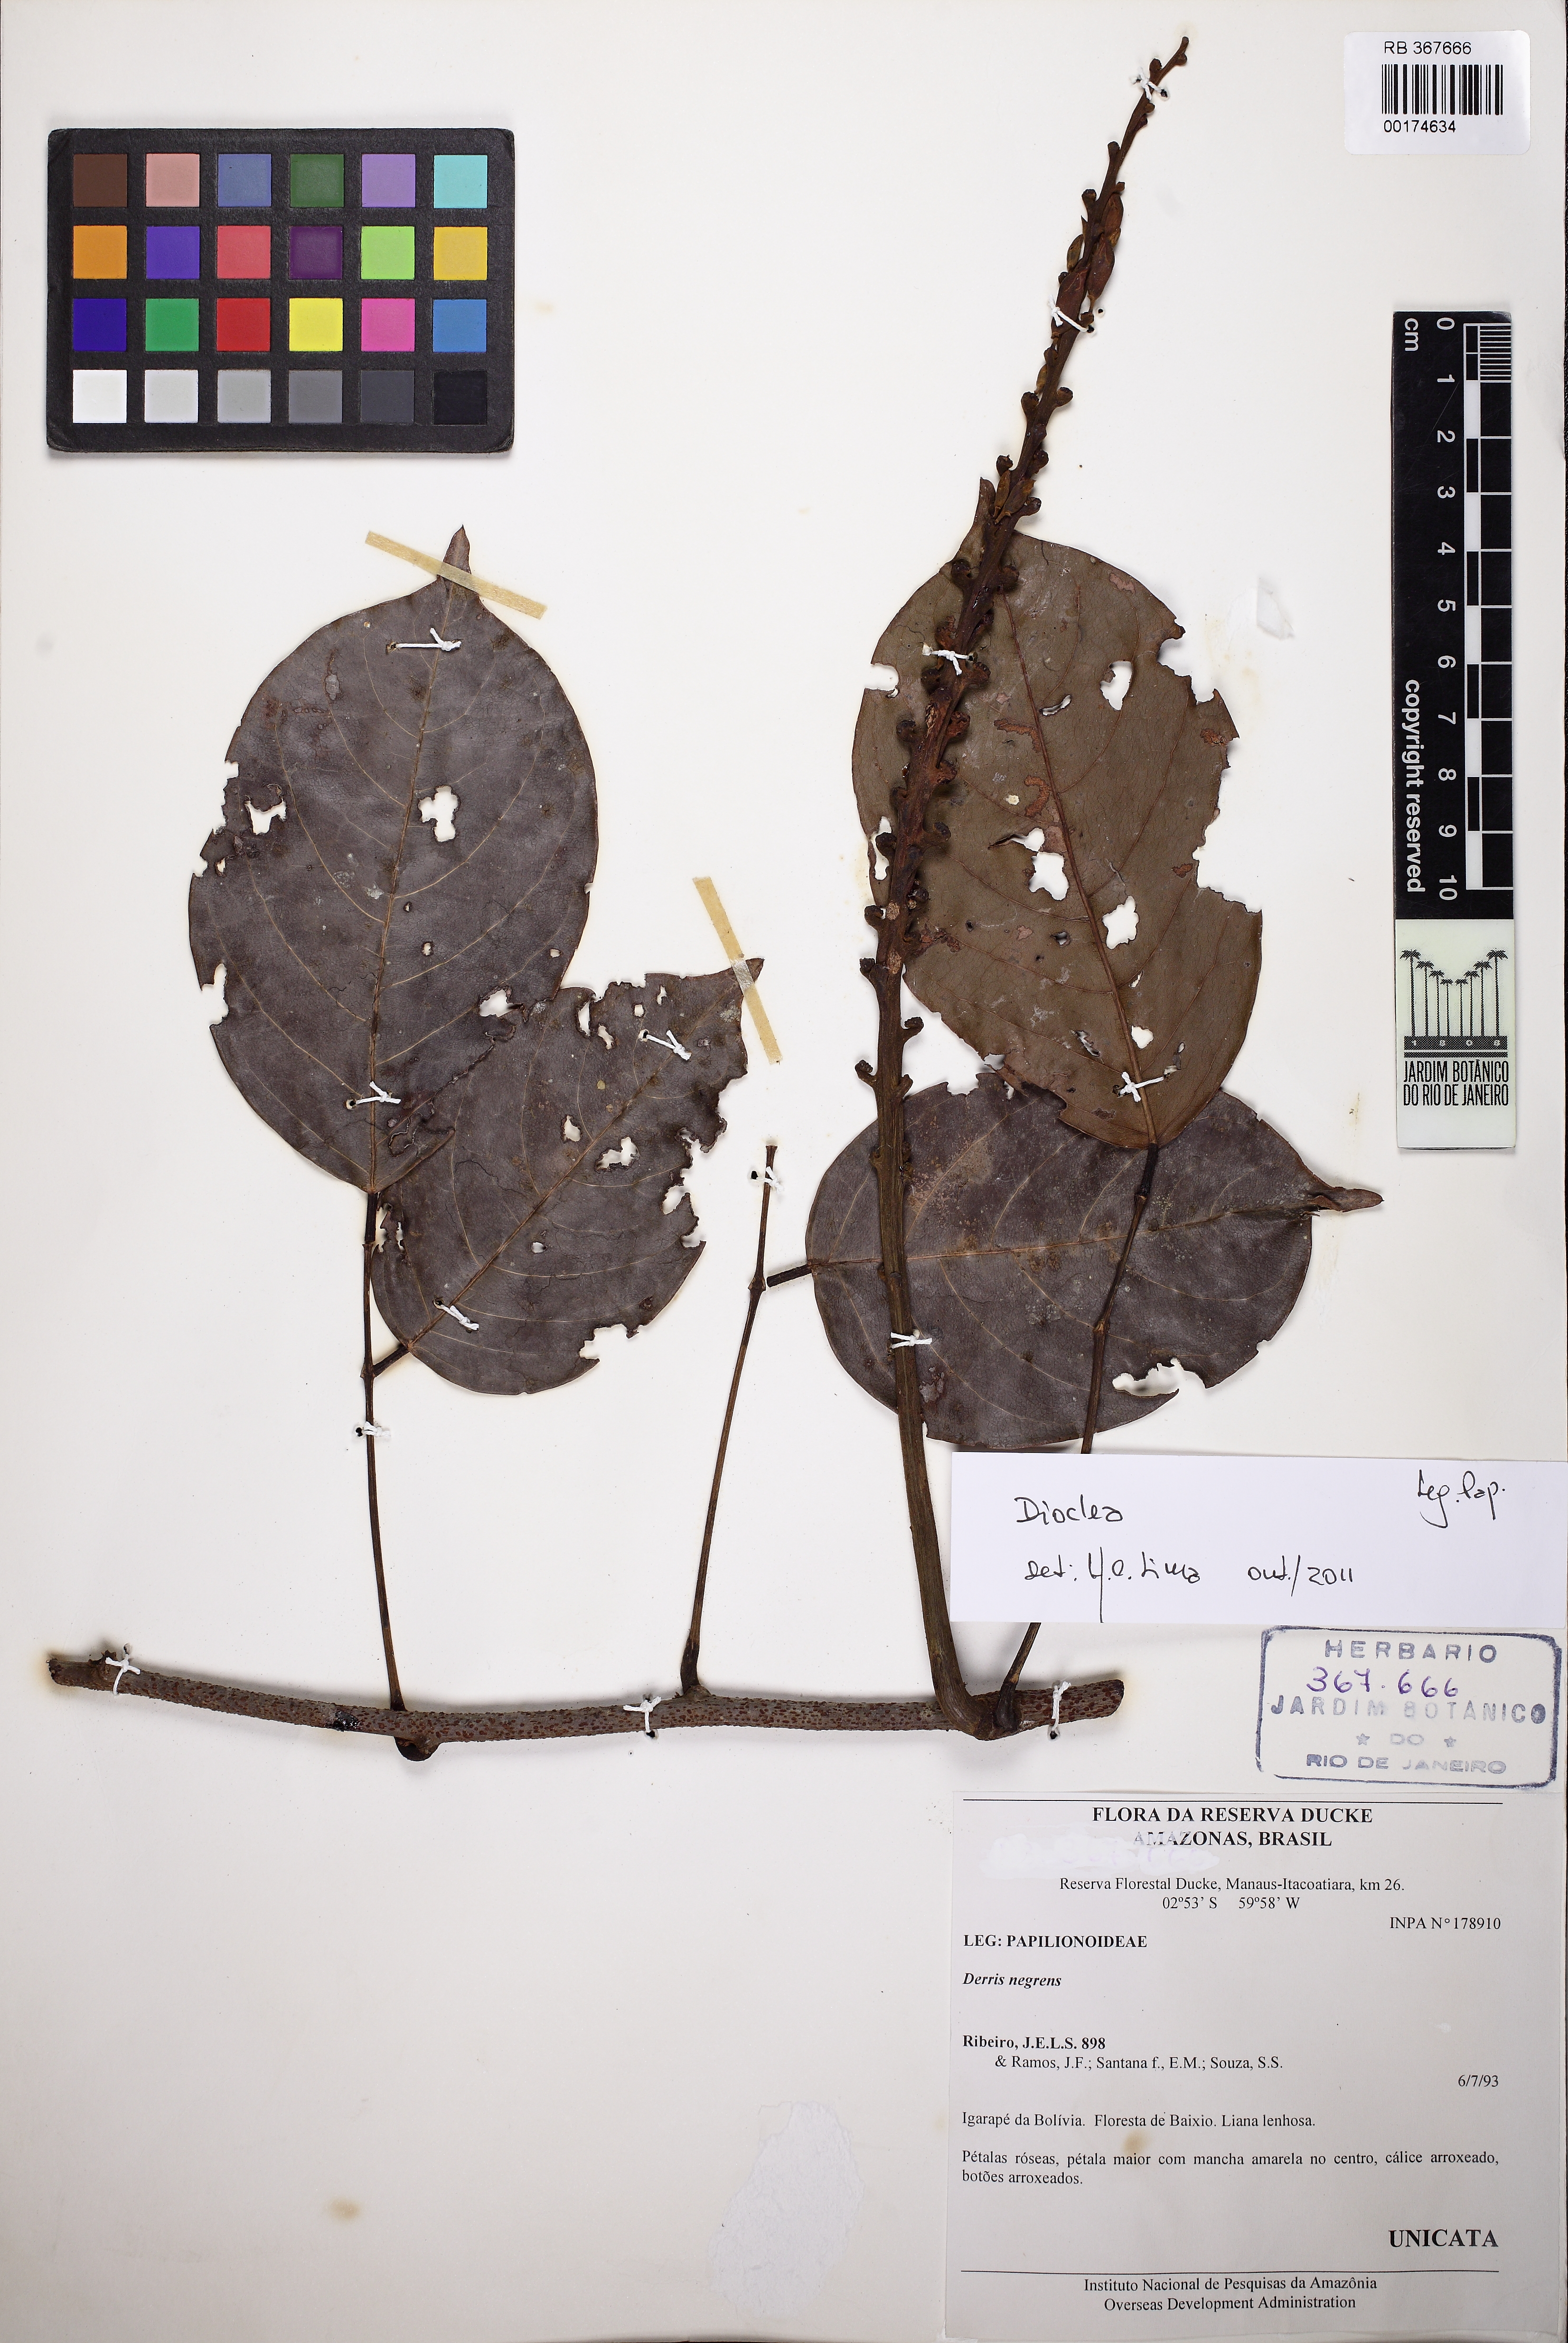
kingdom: Plantae
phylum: Tracheophyta
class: Magnoliopsida
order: Fabales
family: Fabaceae
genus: Macropsychanthus
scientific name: Macropsychanthus scaber
